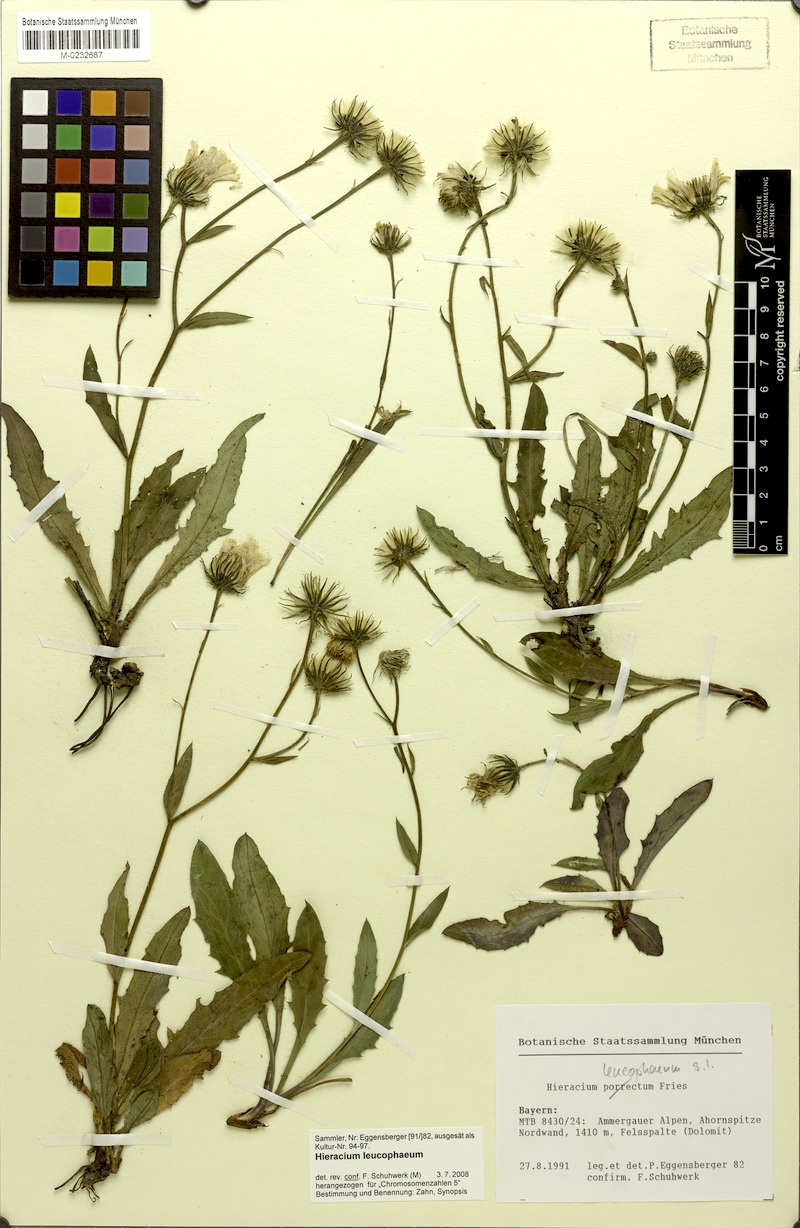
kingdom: Plantae
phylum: Tracheophyta
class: Magnoliopsida
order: Asterales
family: Asteraceae
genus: Hieracium
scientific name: Hieracium leucophaeum
